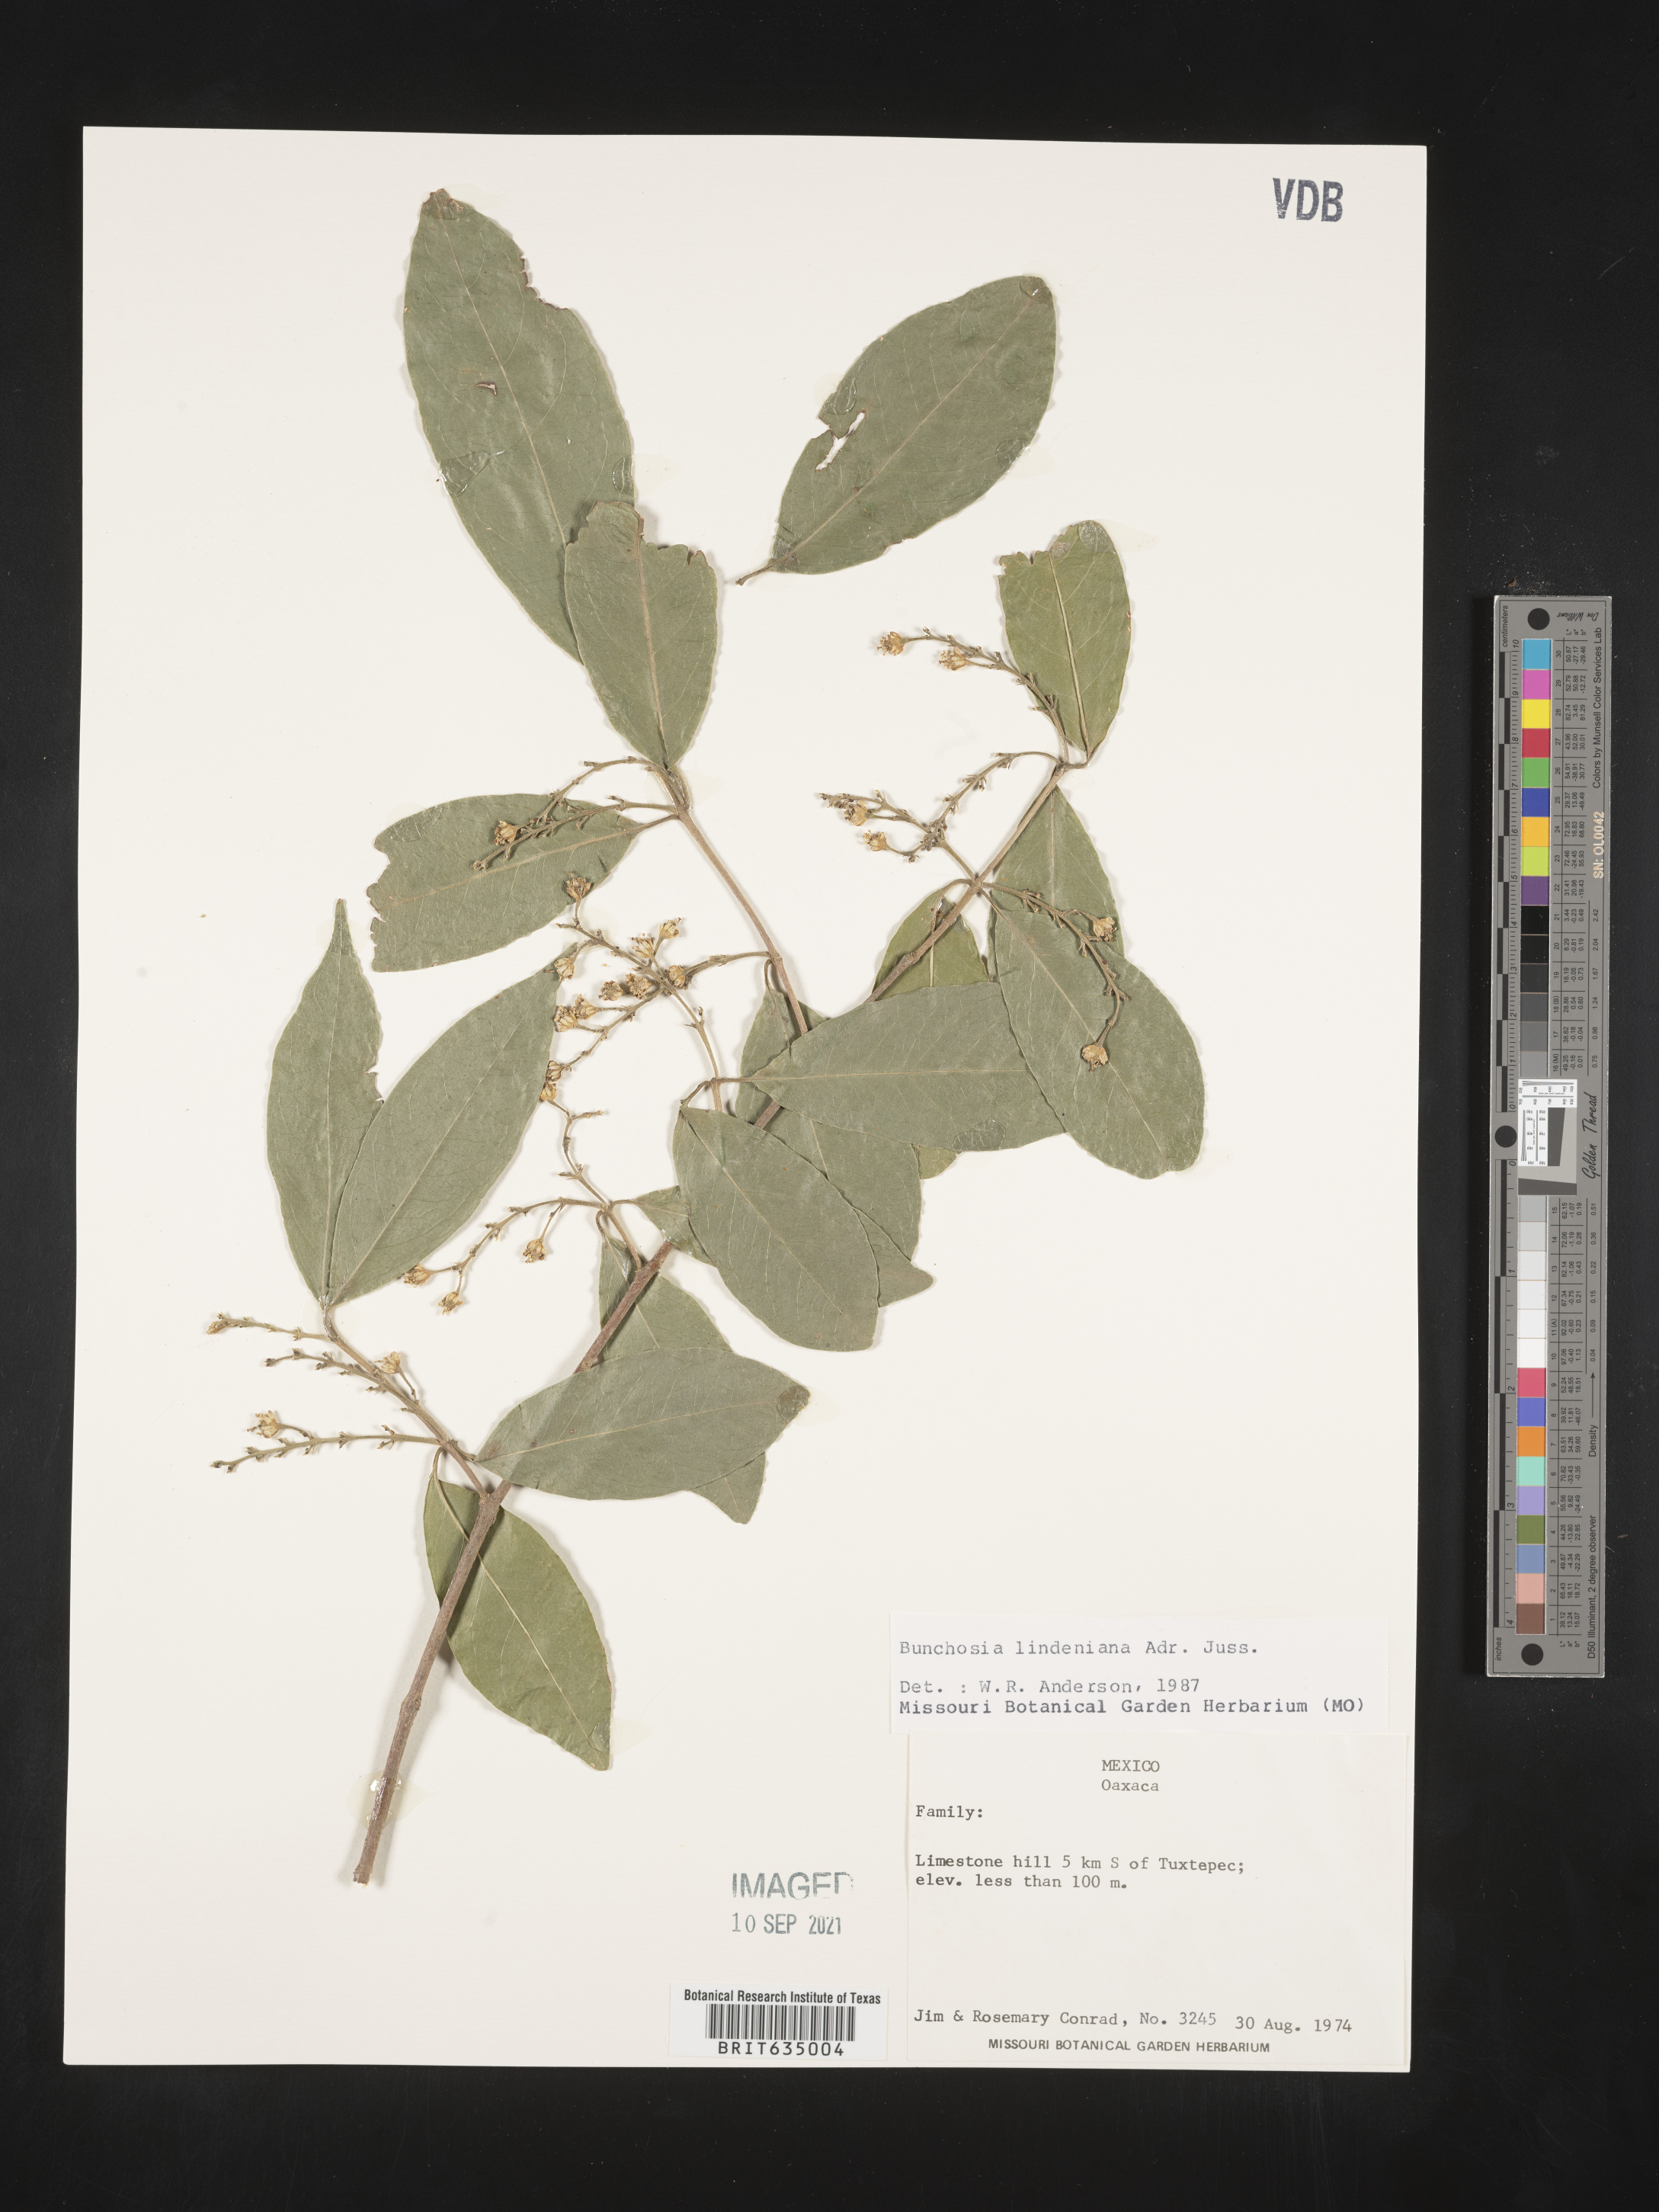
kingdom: Plantae
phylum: Tracheophyta
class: Magnoliopsida
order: Malpighiales
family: Malpighiaceae
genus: Bunchosia
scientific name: Bunchosia
